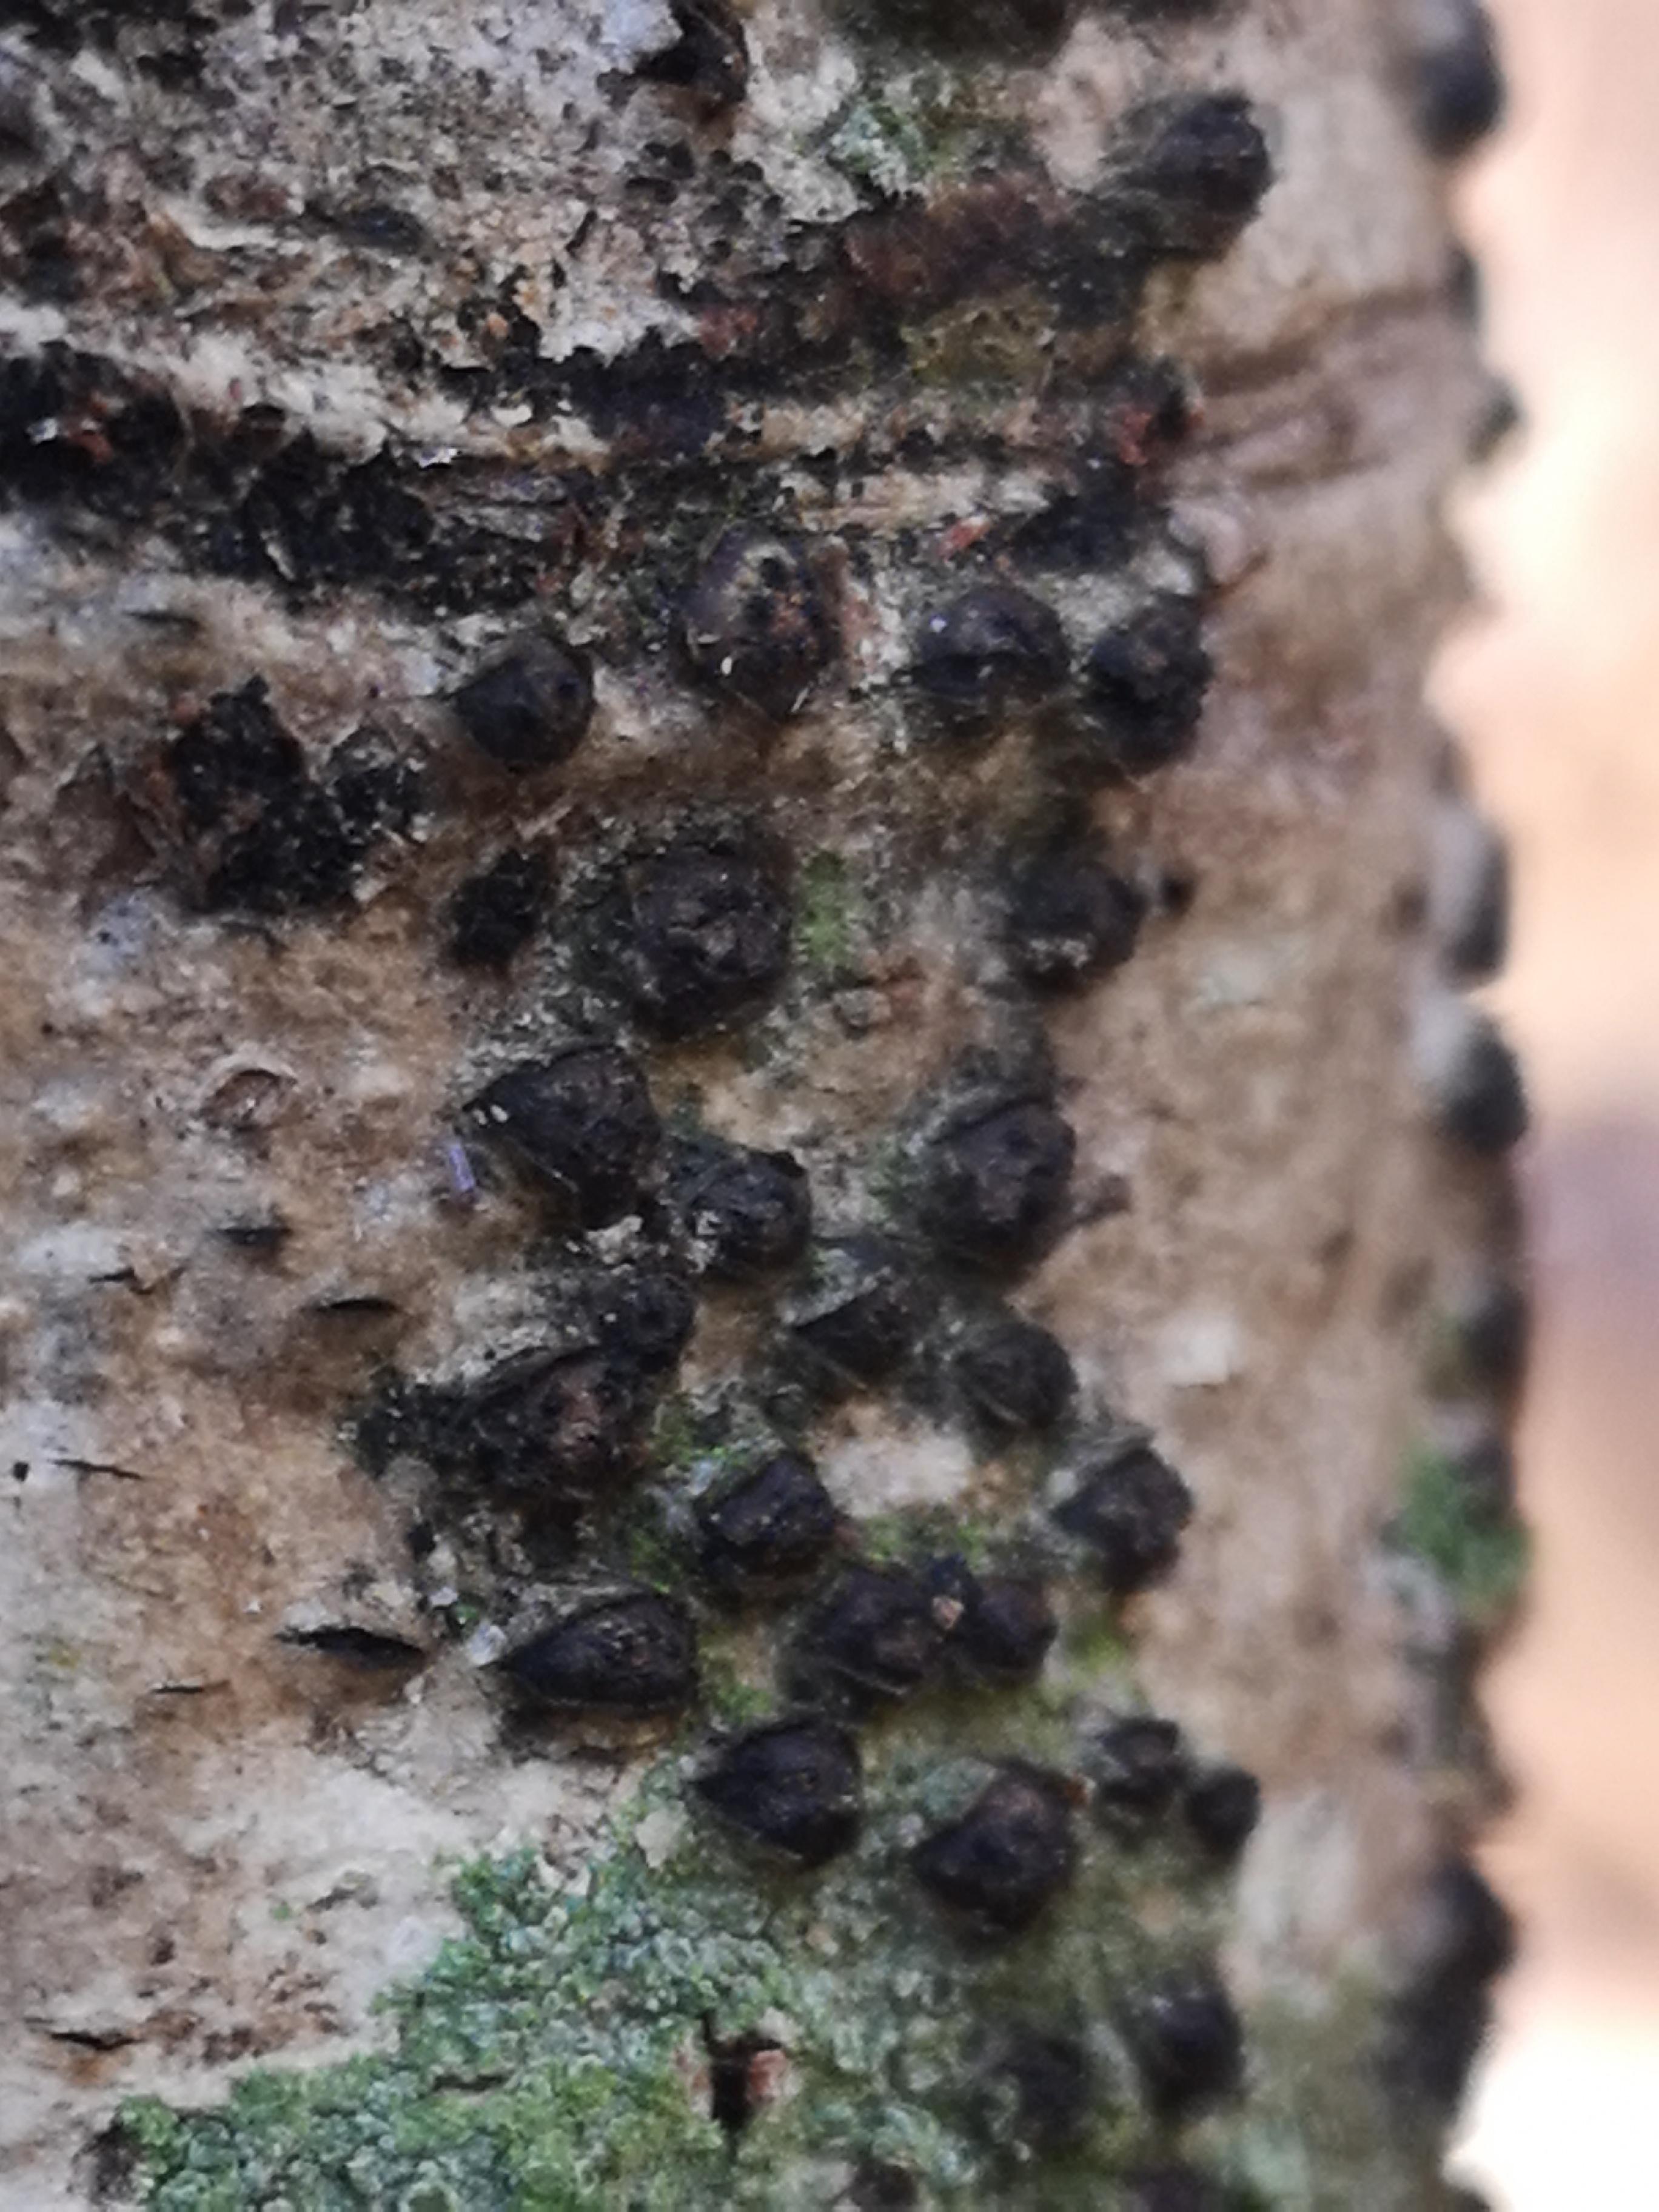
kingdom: Fungi
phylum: Ascomycota
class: Sordariomycetes
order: Xylariales
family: Diatrypaceae
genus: Diatrypella
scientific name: Diatrypella quercina
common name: ege-kulskorpe
